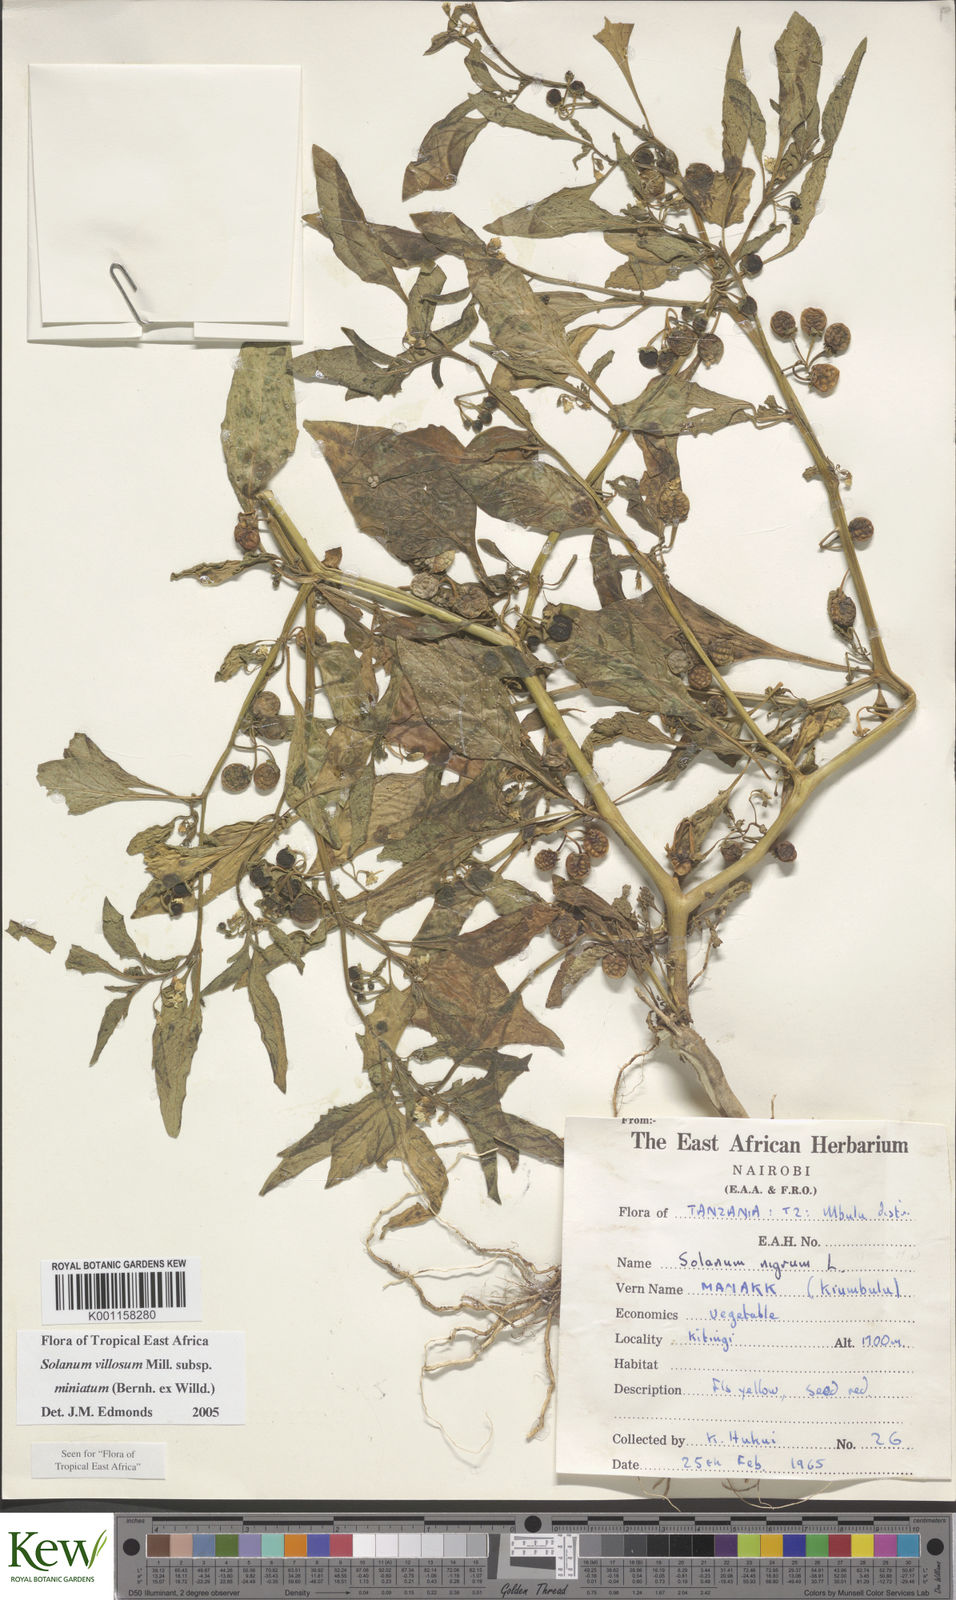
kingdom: Plantae
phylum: Tracheophyta
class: Magnoliopsida
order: Solanales
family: Solanaceae
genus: Solanum
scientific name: Solanum villosum
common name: Red nightshade
